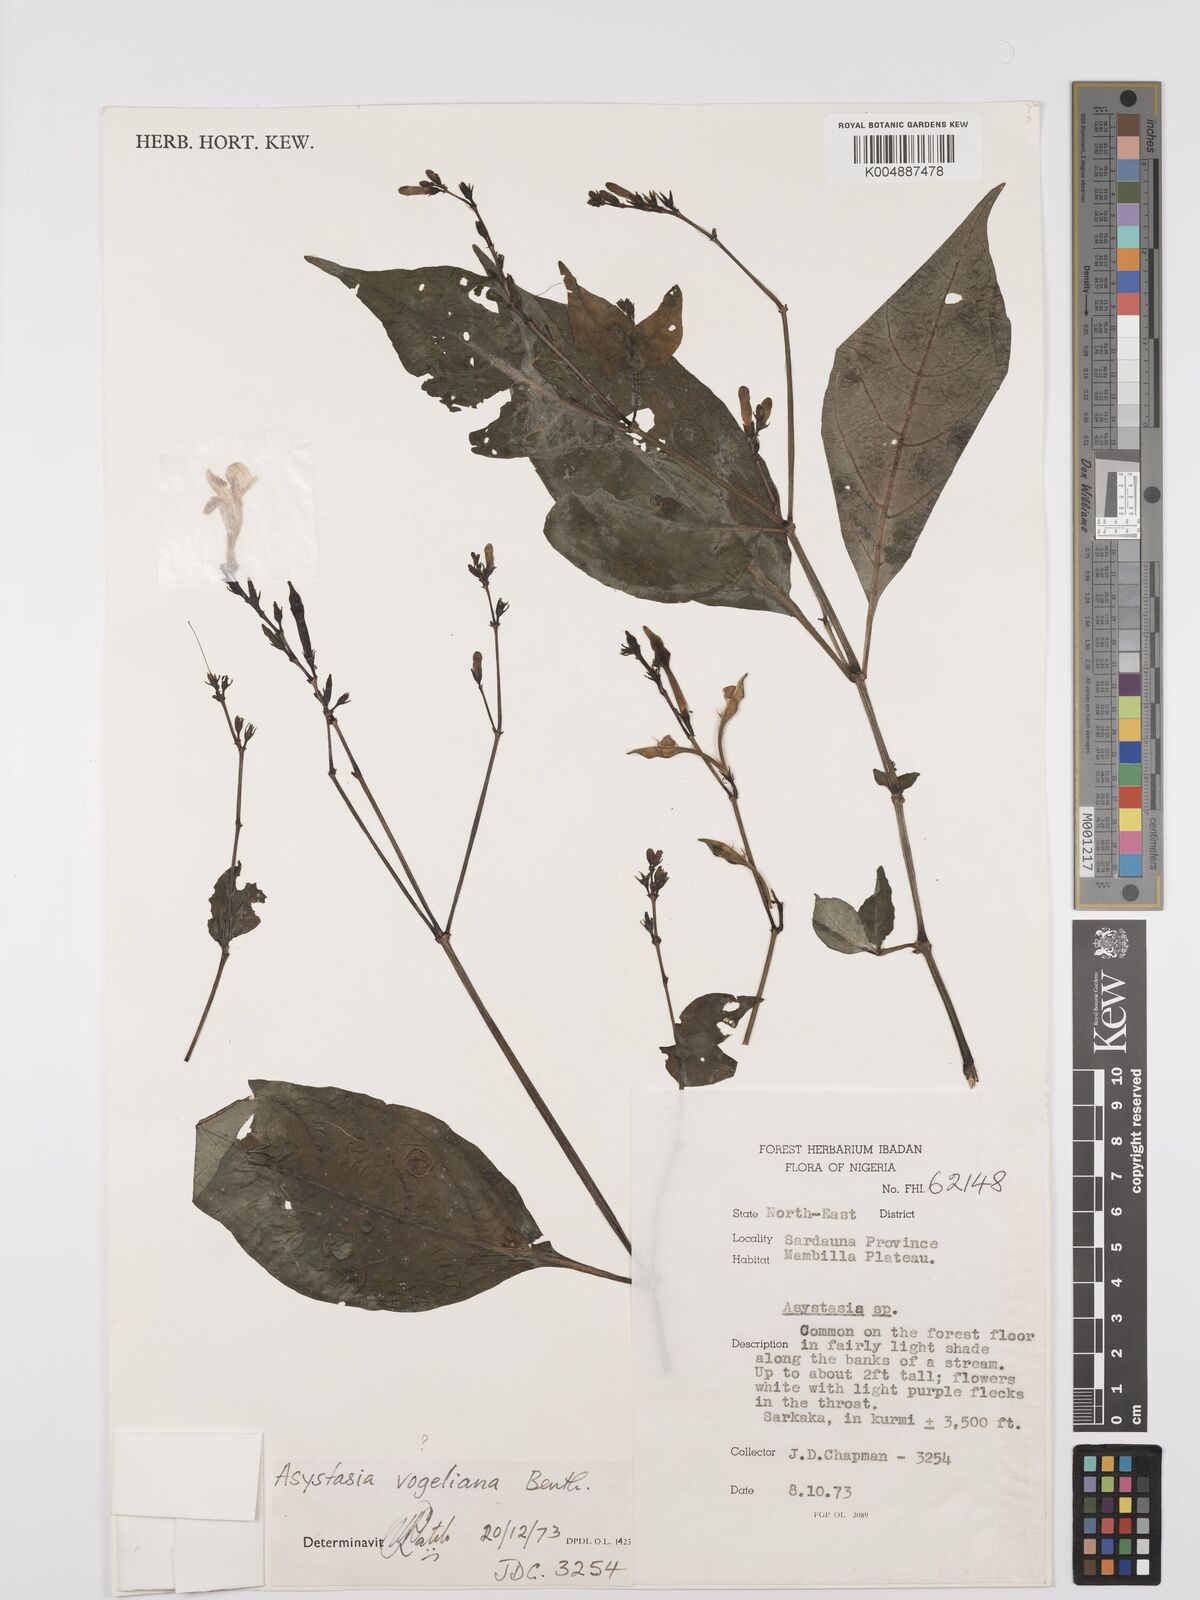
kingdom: Plantae
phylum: Tracheophyta
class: Magnoliopsida
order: Lamiales
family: Acanthaceae
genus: Asystasia
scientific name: Asystasia
